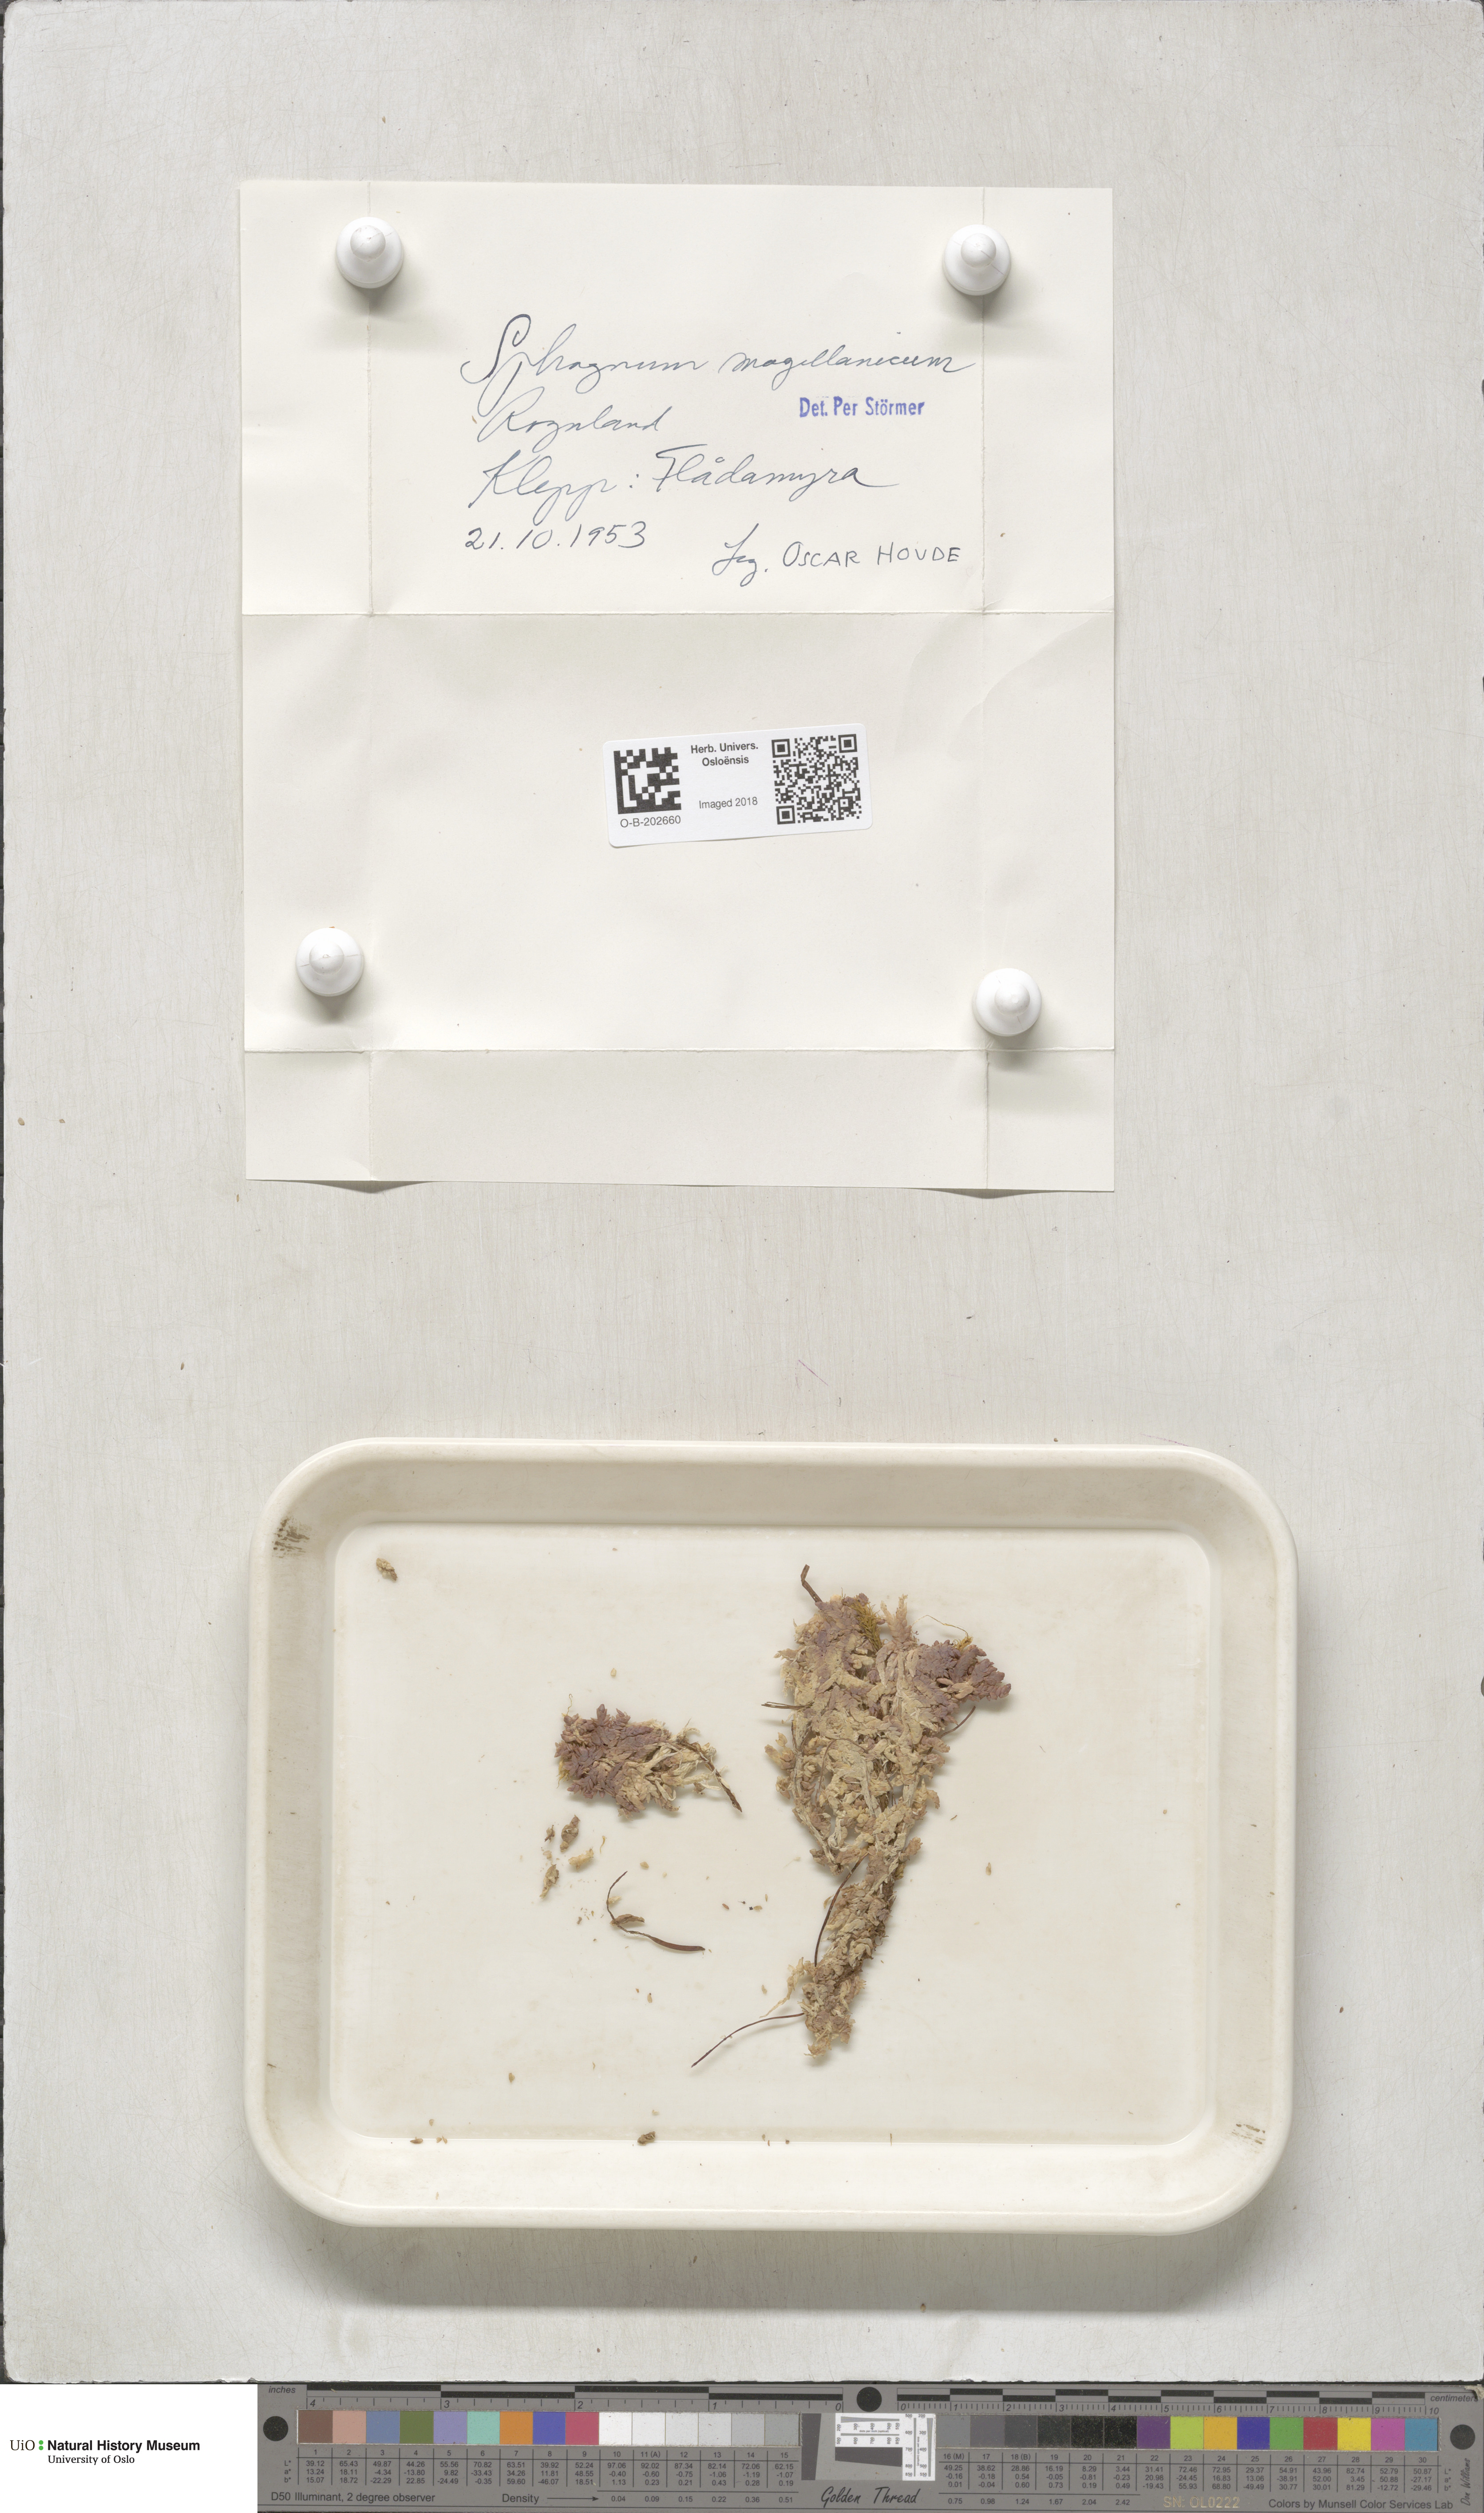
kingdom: Plantae
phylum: Bryophyta
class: Sphagnopsida
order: Sphagnales
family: Sphagnaceae
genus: Sphagnum
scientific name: Sphagnum magellanicum
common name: Magellan's peat moss
